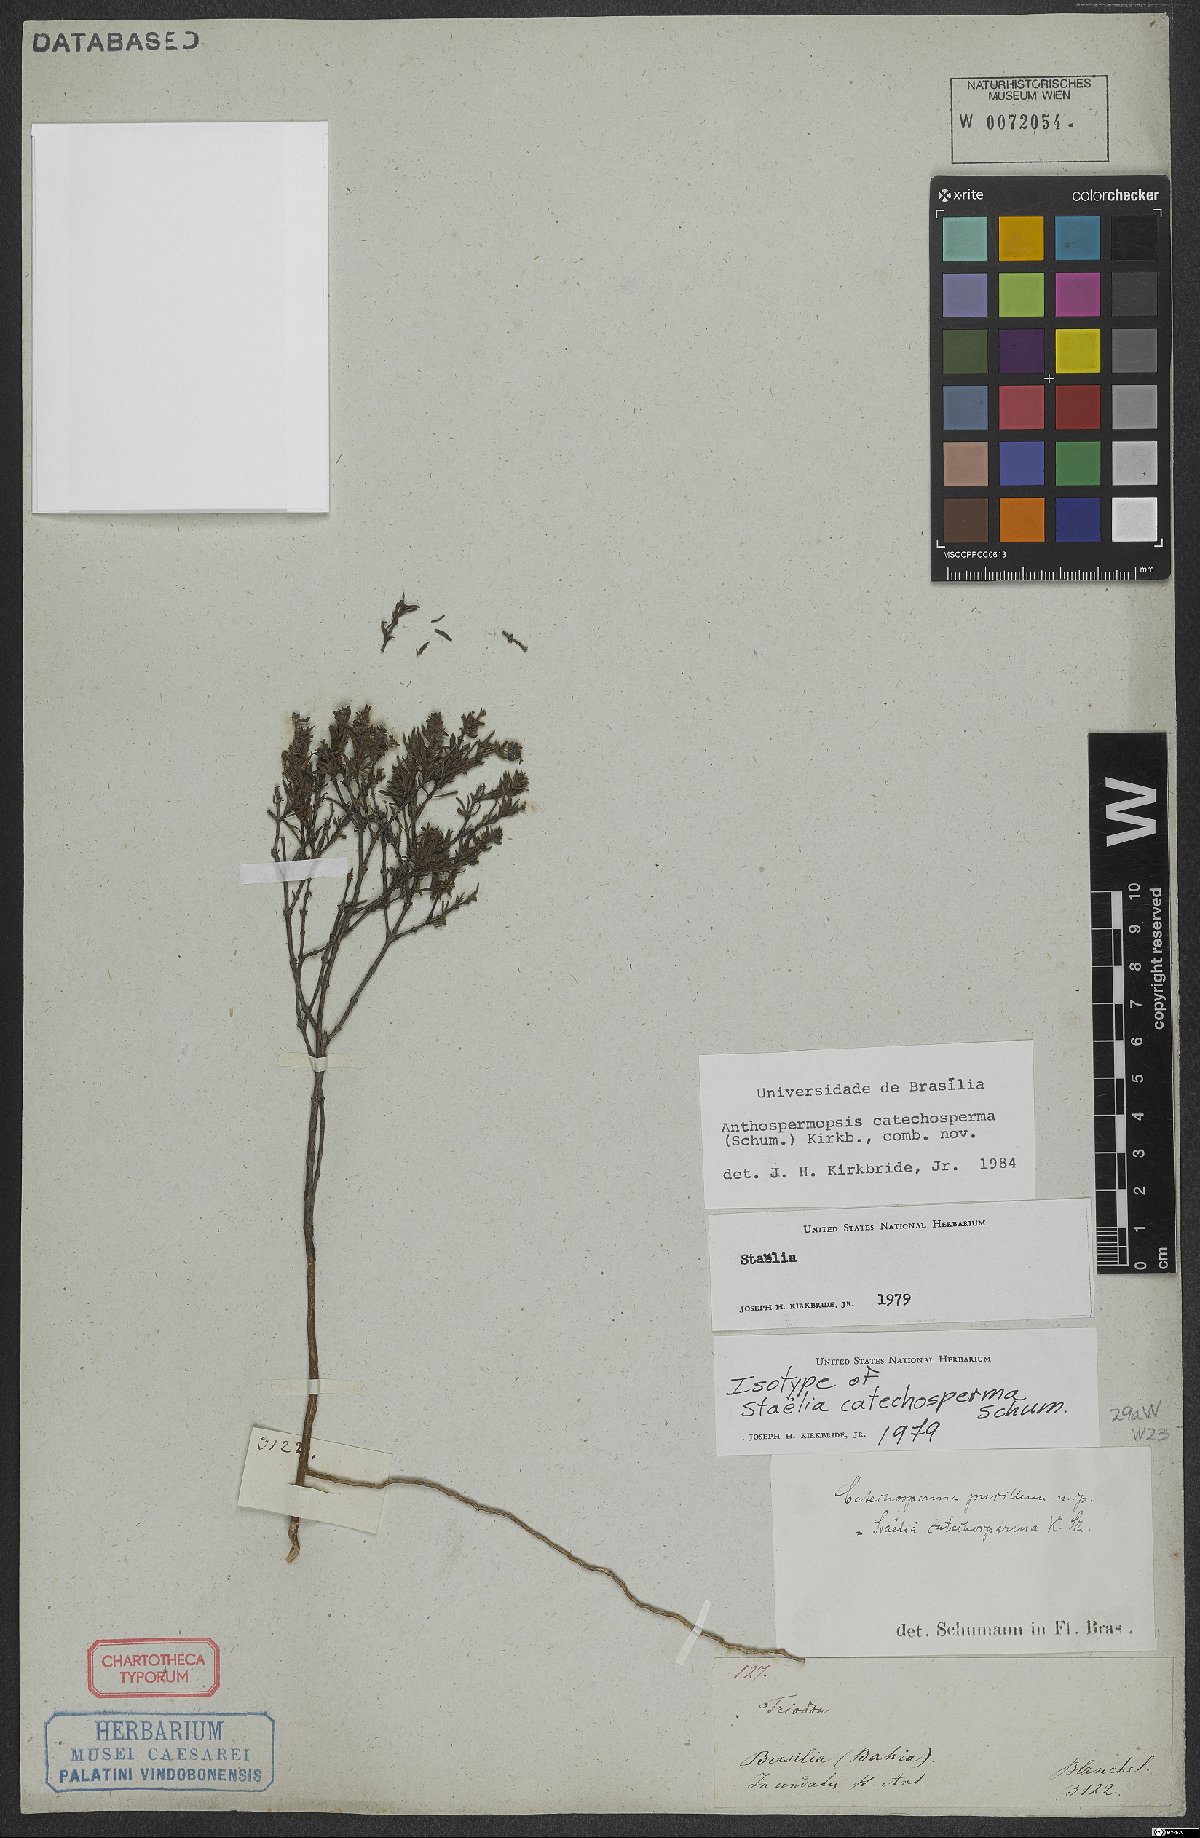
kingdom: Plantae
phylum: Tracheophyta
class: Magnoliopsida
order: Gentianales
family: Rubiaceae
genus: Anthospermopsis
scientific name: Anthospermopsis catechosperma
